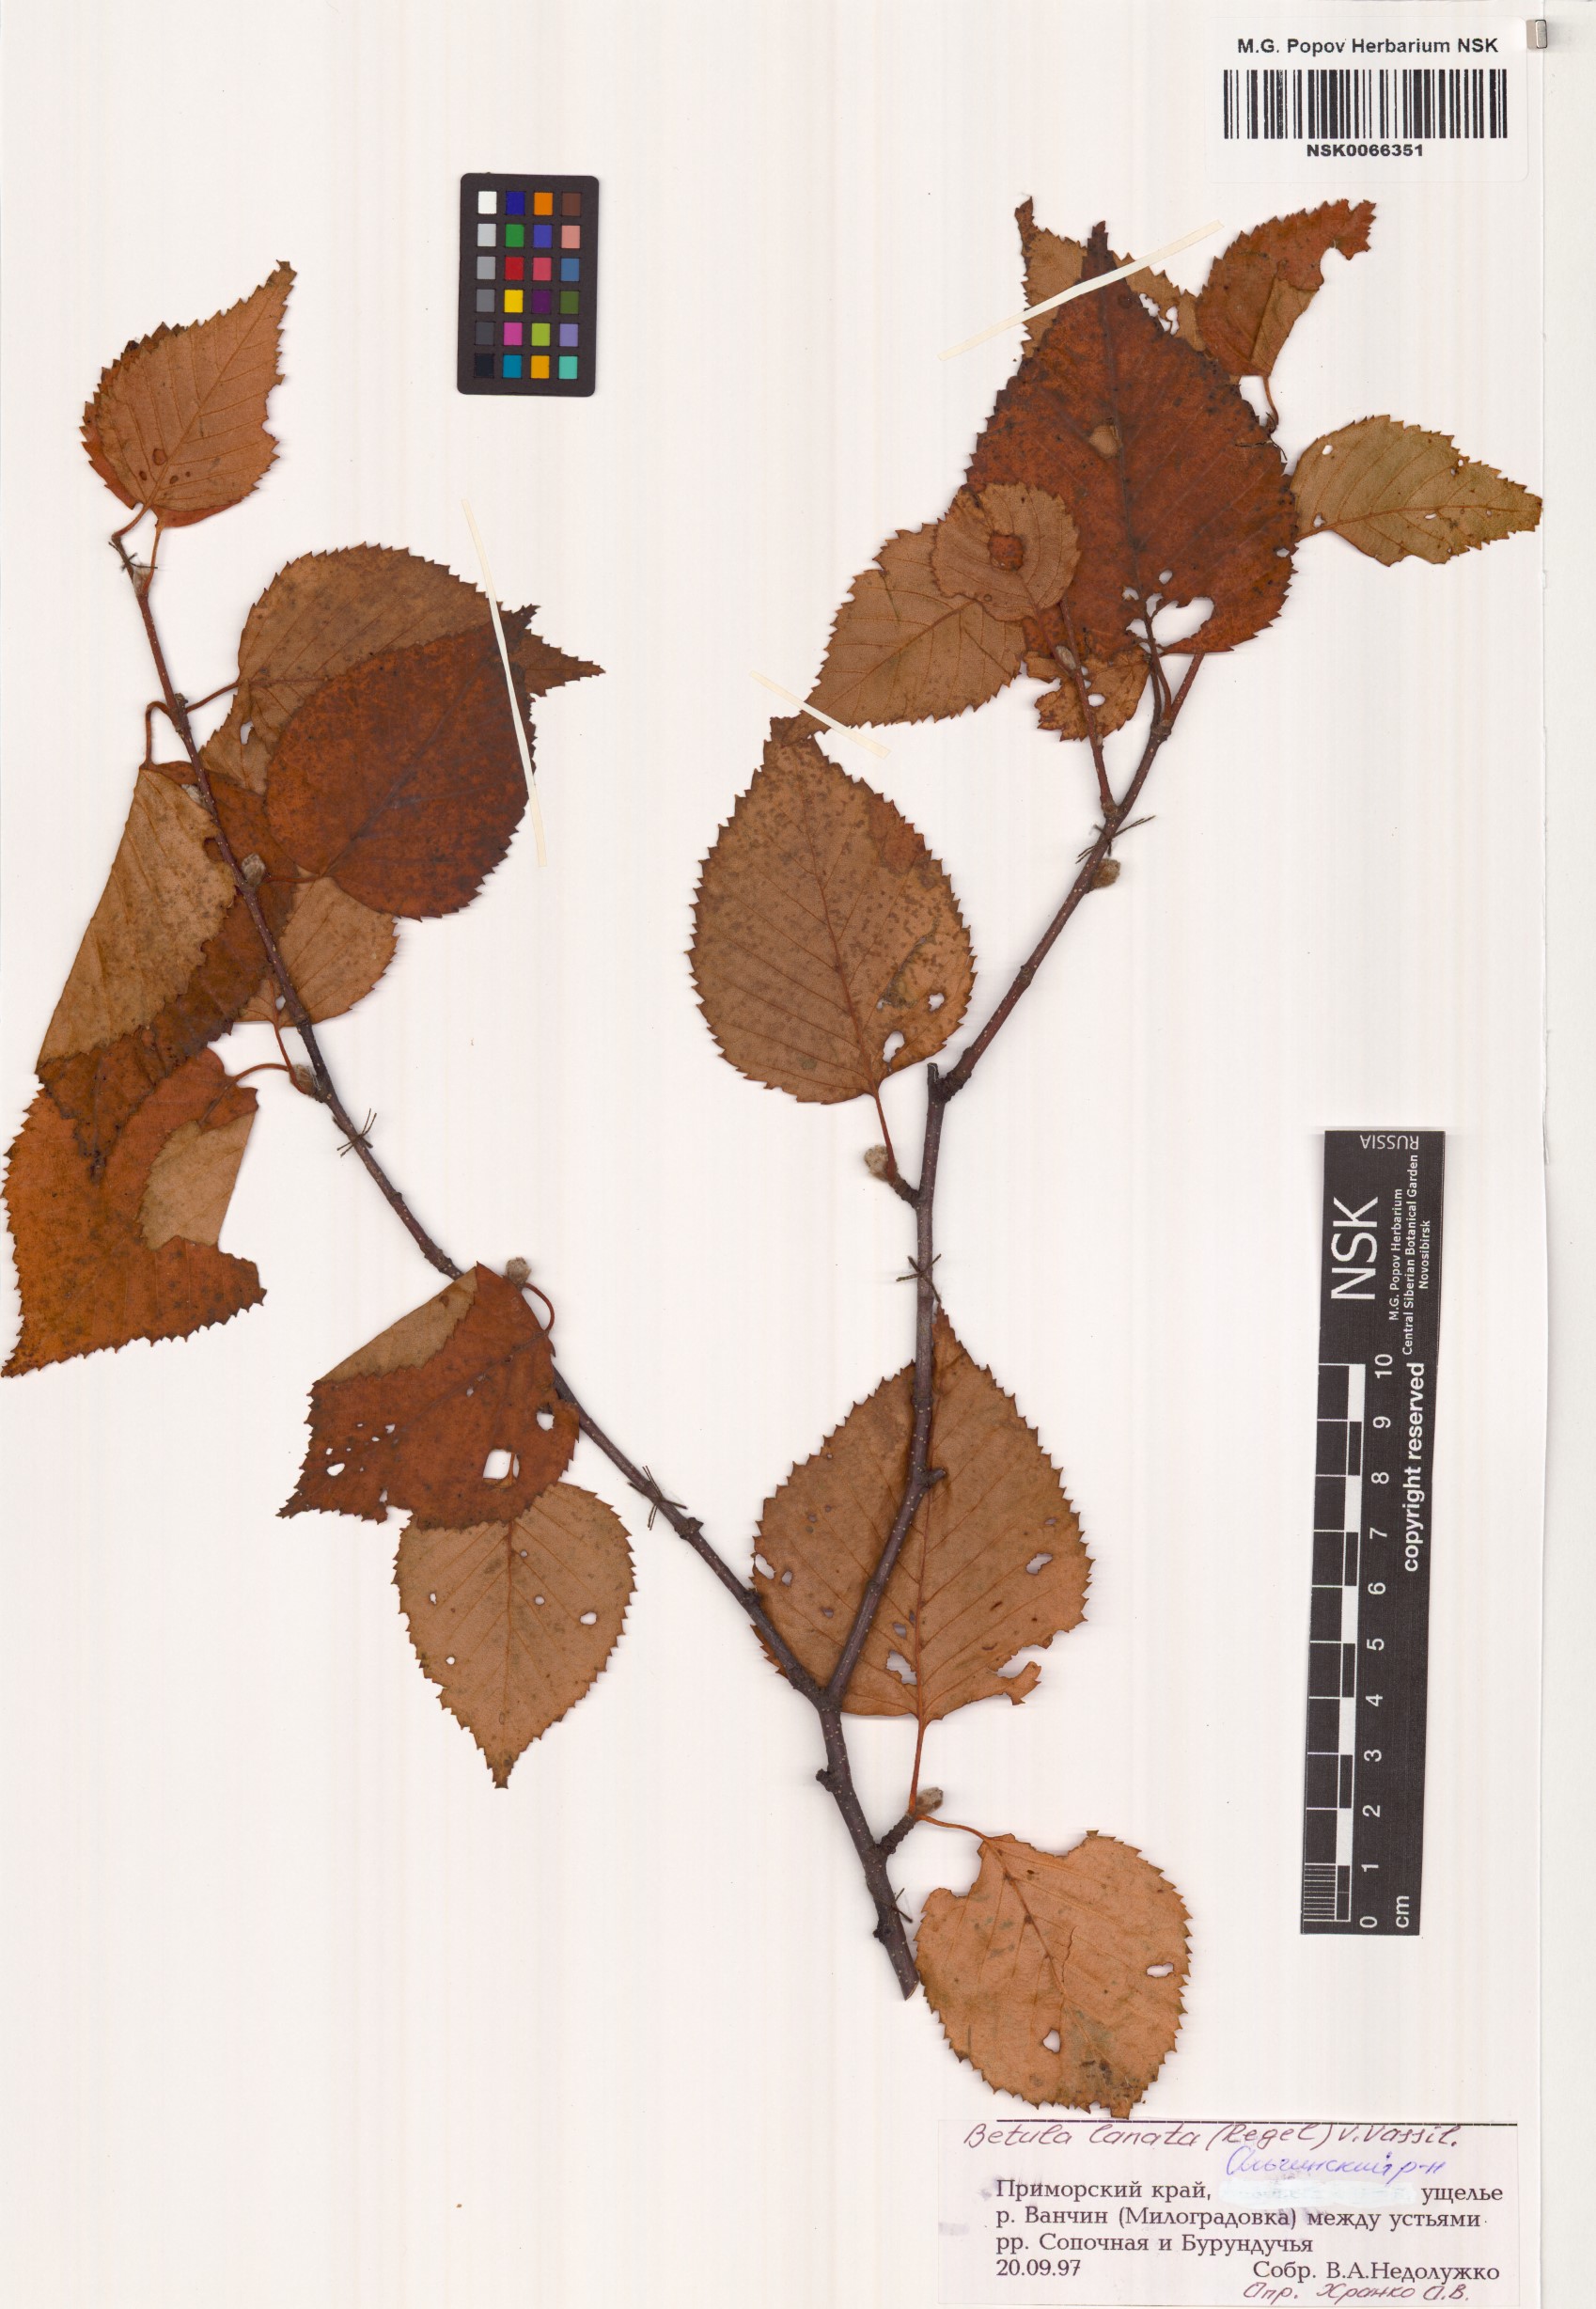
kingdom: Plantae
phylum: Tracheophyta
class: Magnoliopsida
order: Fagales
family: Betulaceae
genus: Betula
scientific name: Betula ermanii
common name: Erman's birch
